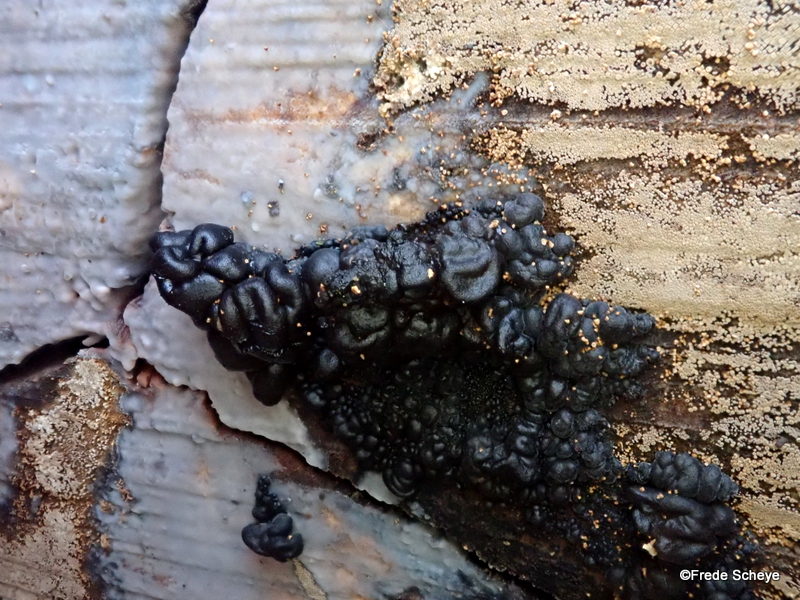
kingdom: Fungi
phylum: Basidiomycota
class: Agaricomycetes
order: Auriculariales
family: Auriculariaceae
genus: Exidia
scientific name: Exidia nigricans
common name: almindelig bævretop
